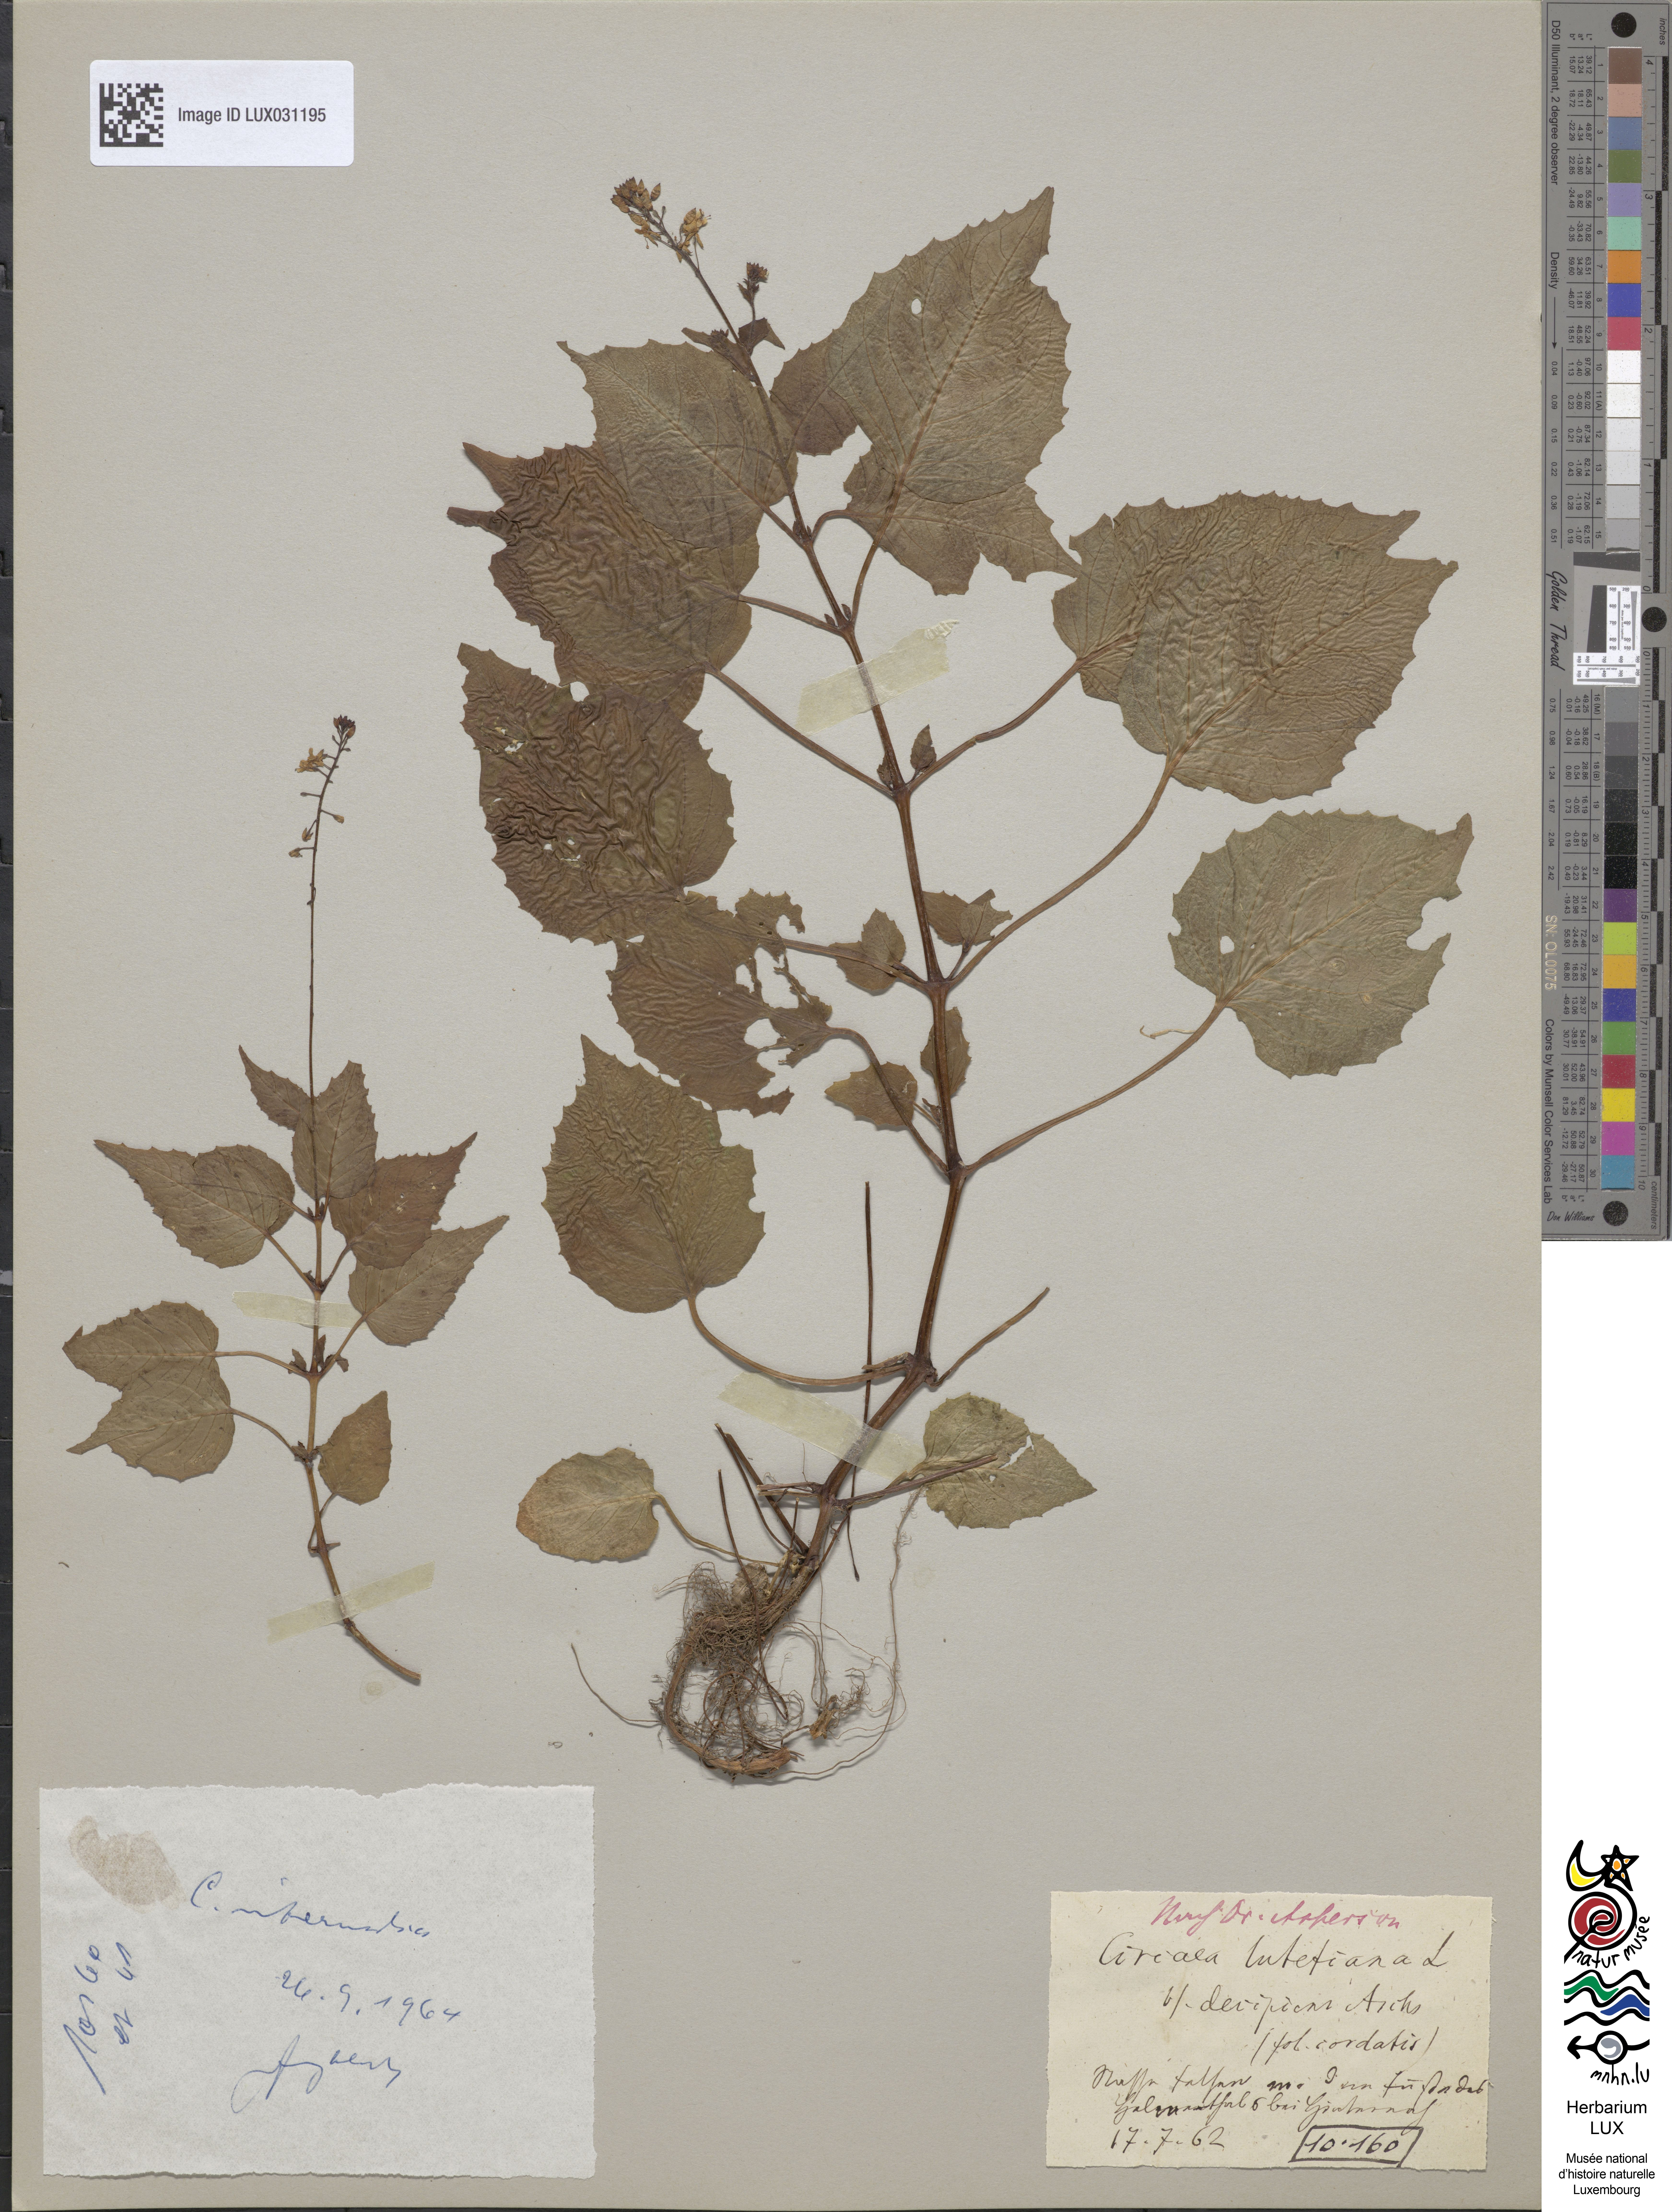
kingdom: Plantae
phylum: Tracheophyta
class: Magnoliopsida
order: Myrtales
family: Onagraceae
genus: Circaea
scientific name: Circaea lutetiana
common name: Enchanter's-nightshade
